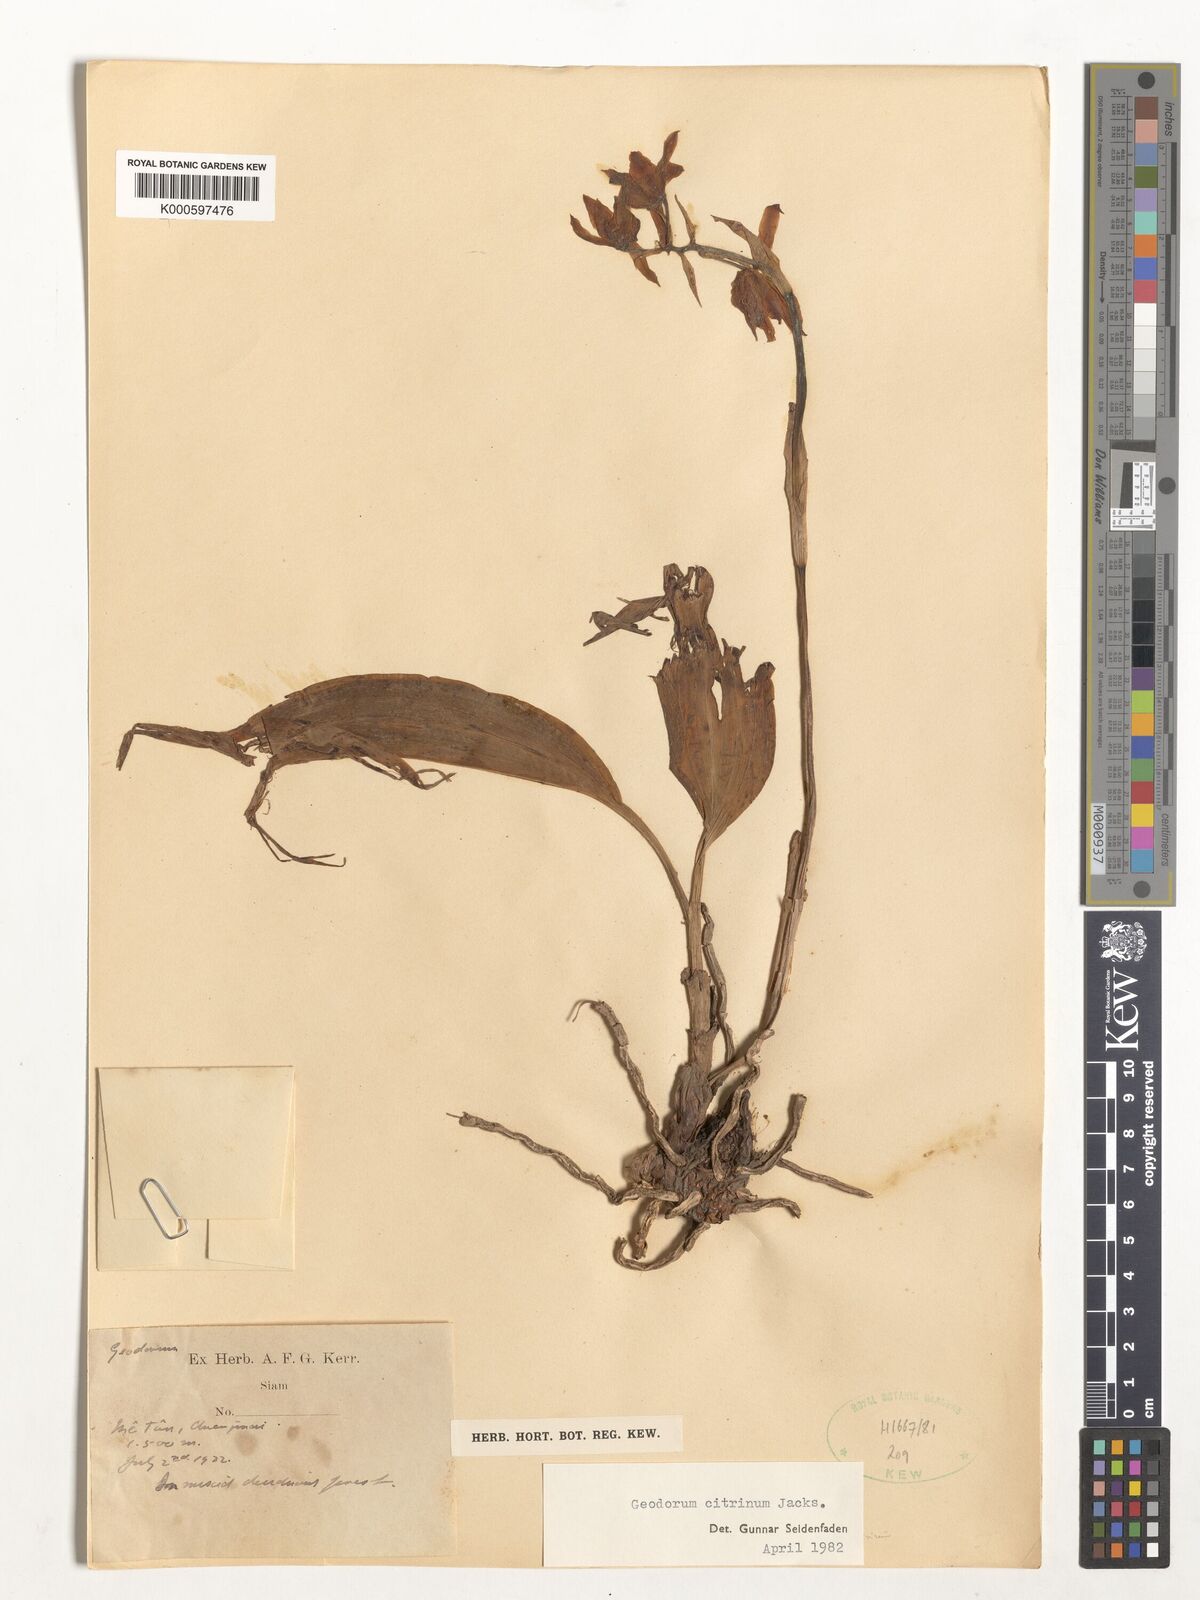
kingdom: Plantae
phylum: Tracheophyta
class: Liliopsida
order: Asparagales
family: Orchidaceae
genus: Geodorum
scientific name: Geodorum
